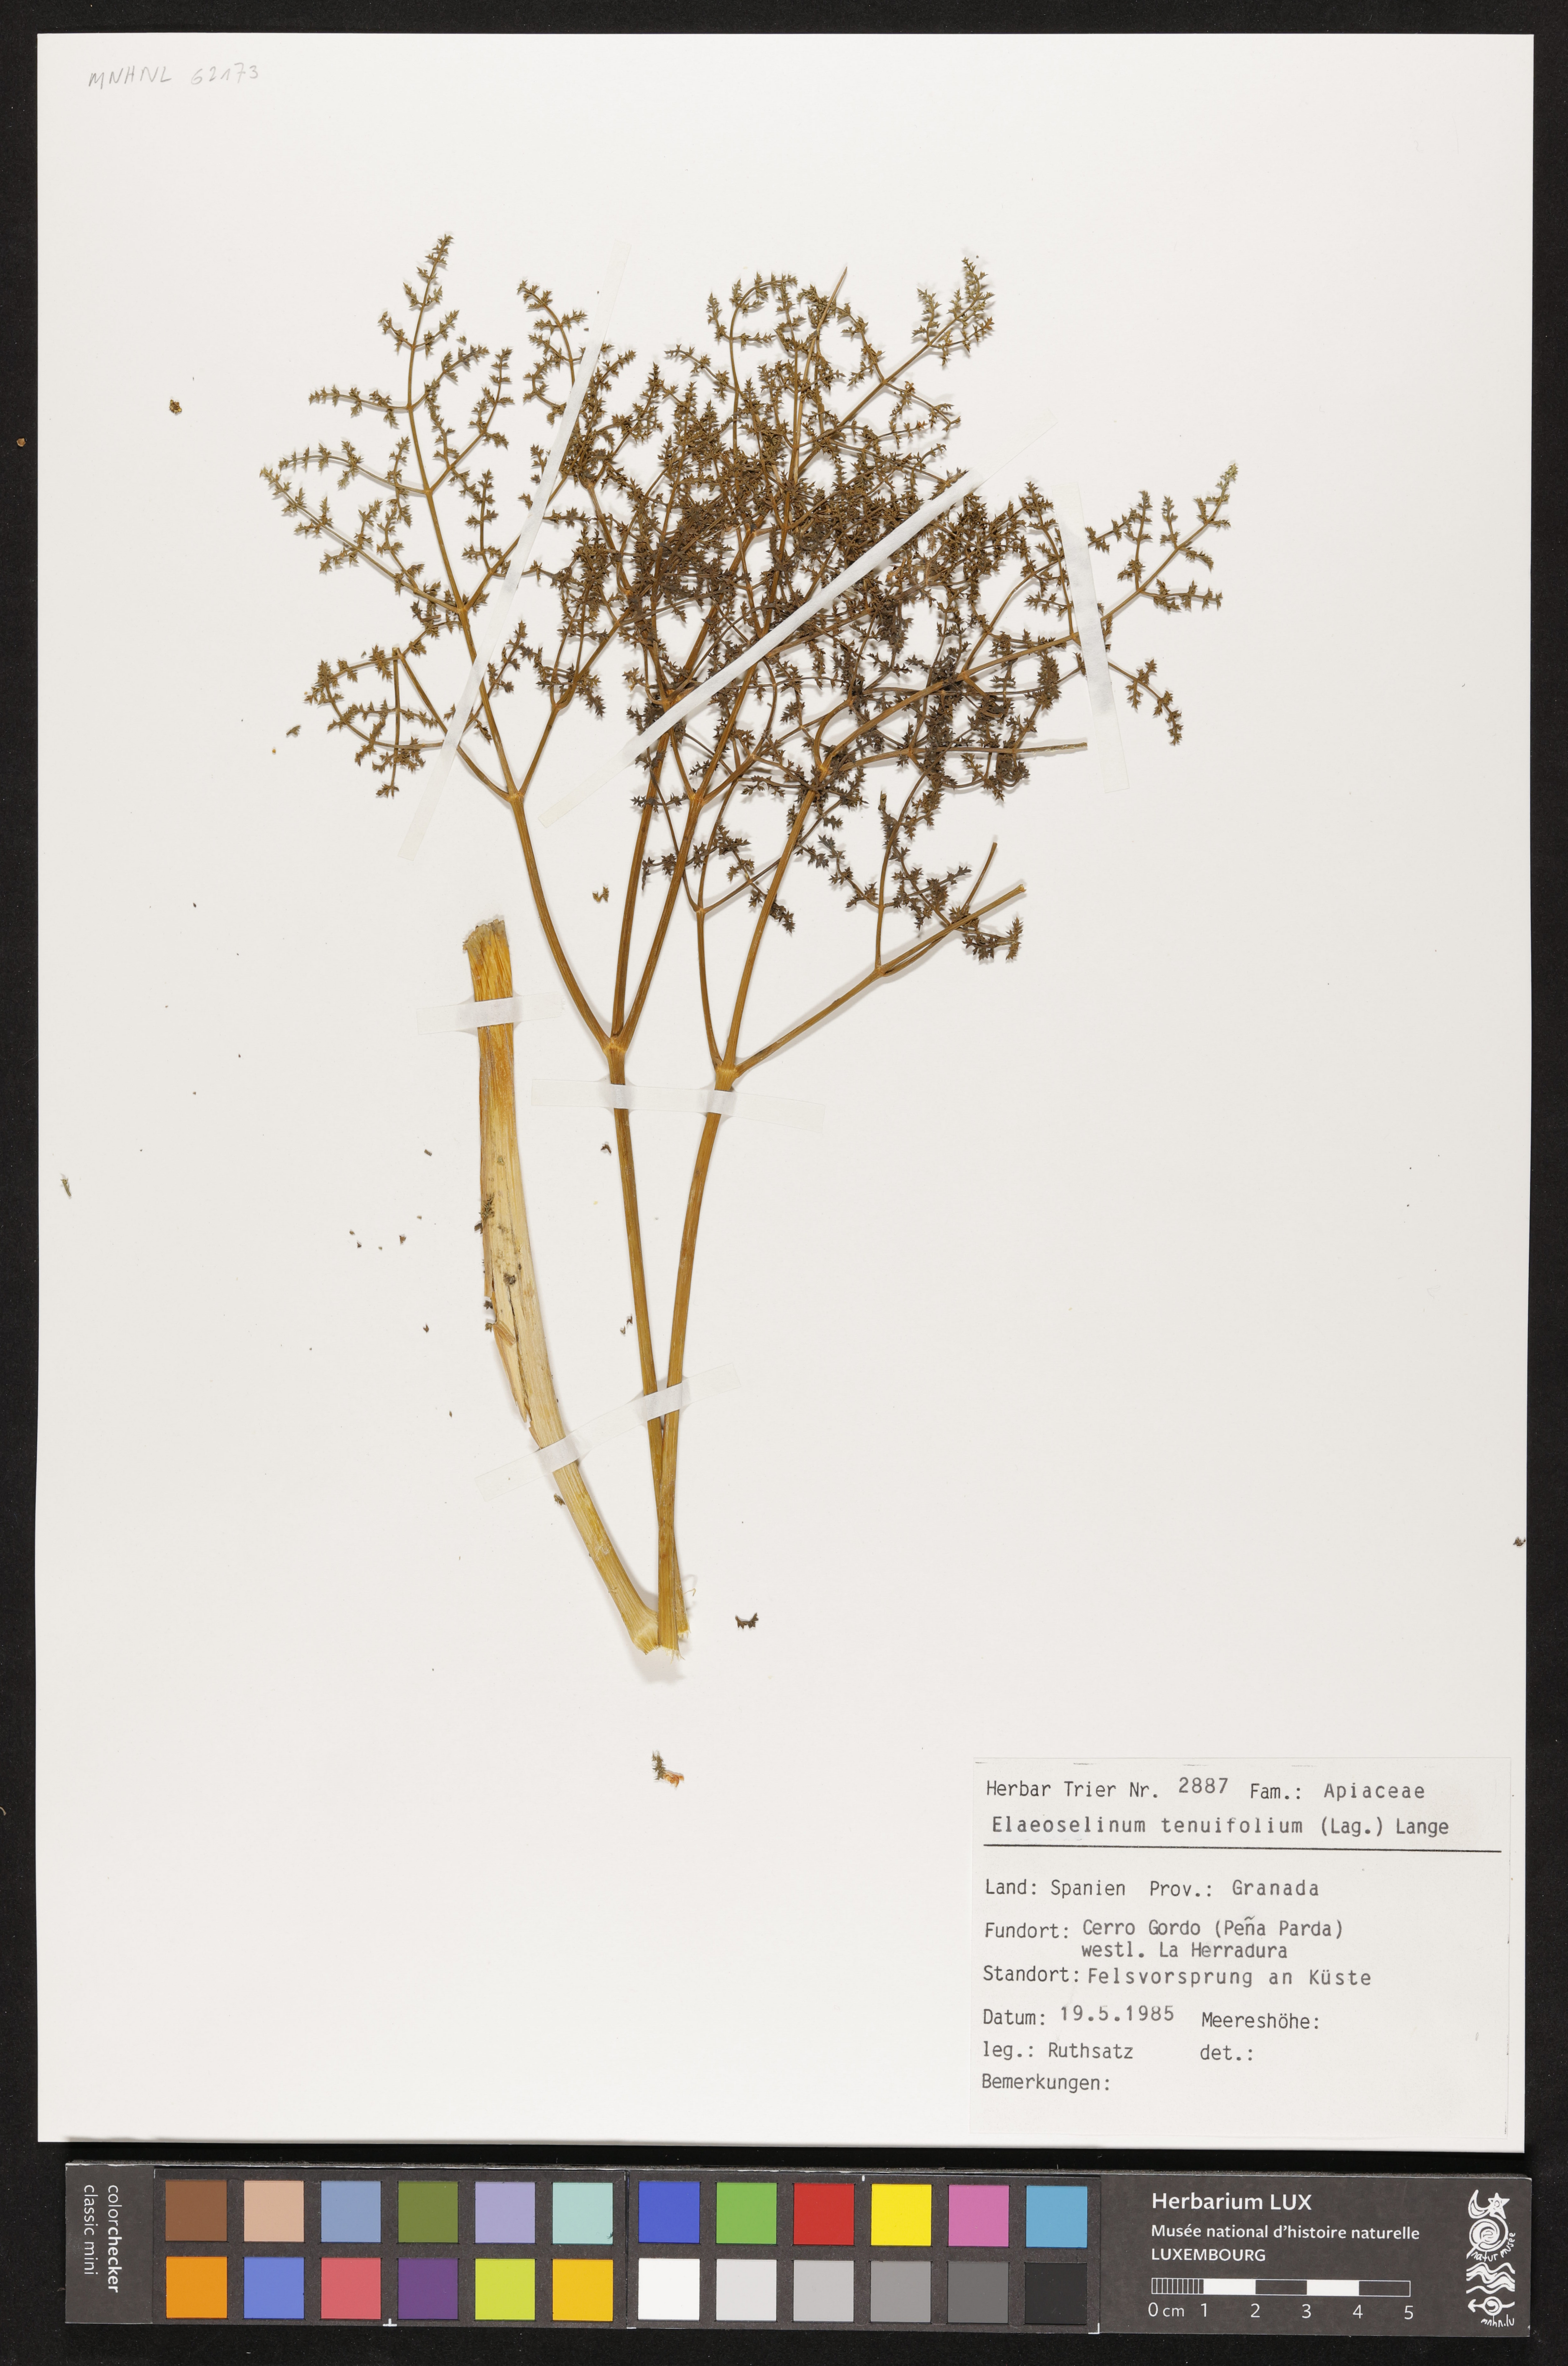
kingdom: Plantae
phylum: Tracheophyta
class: Magnoliopsida
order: Apiales
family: Apiaceae
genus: Thapsia
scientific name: Thapsia tenuifolia
